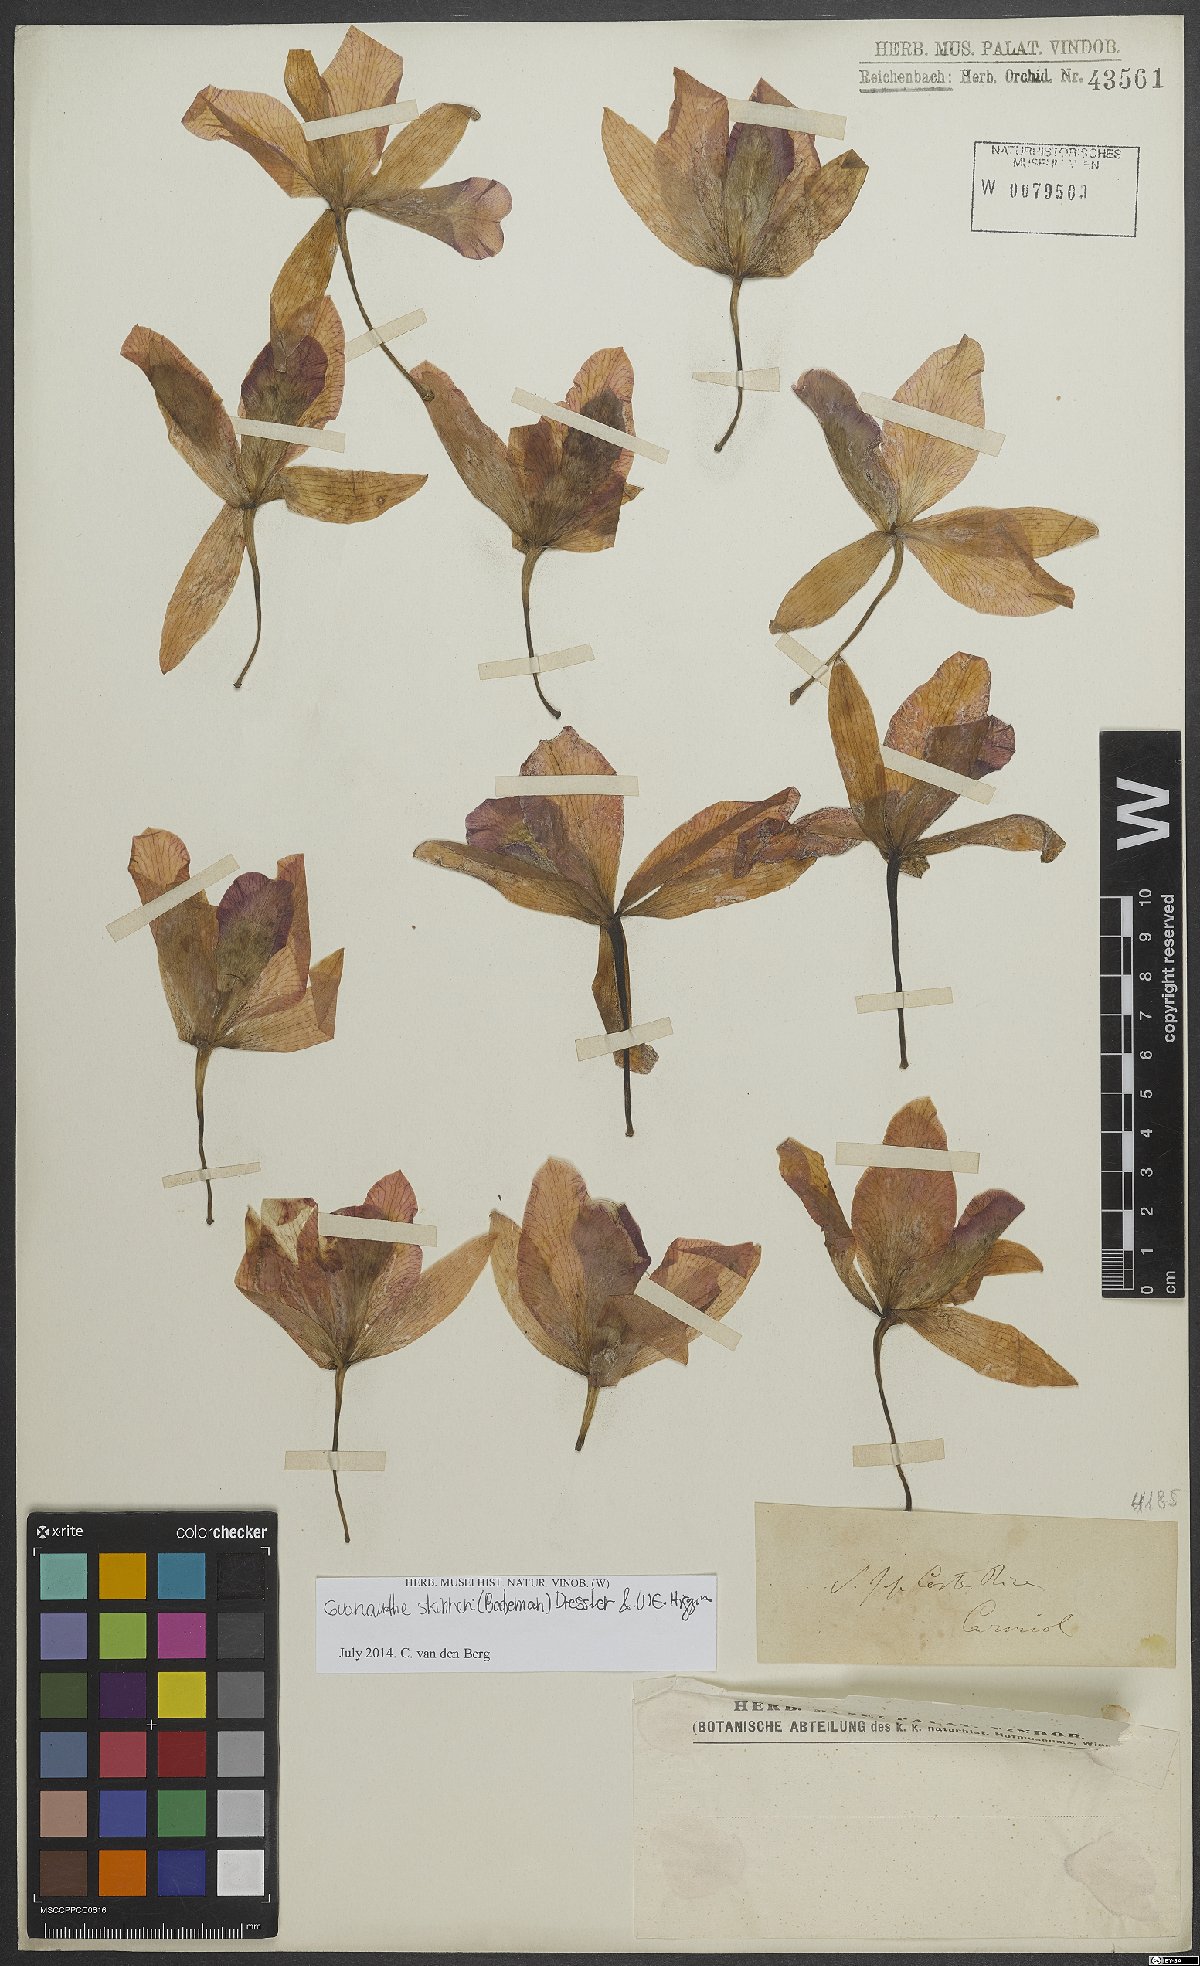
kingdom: Plantae
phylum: Tracheophyta
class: Liliopsida
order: Asparagales
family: Orchidaceae
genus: Guarianthe
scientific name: Guarianthe skinneri
